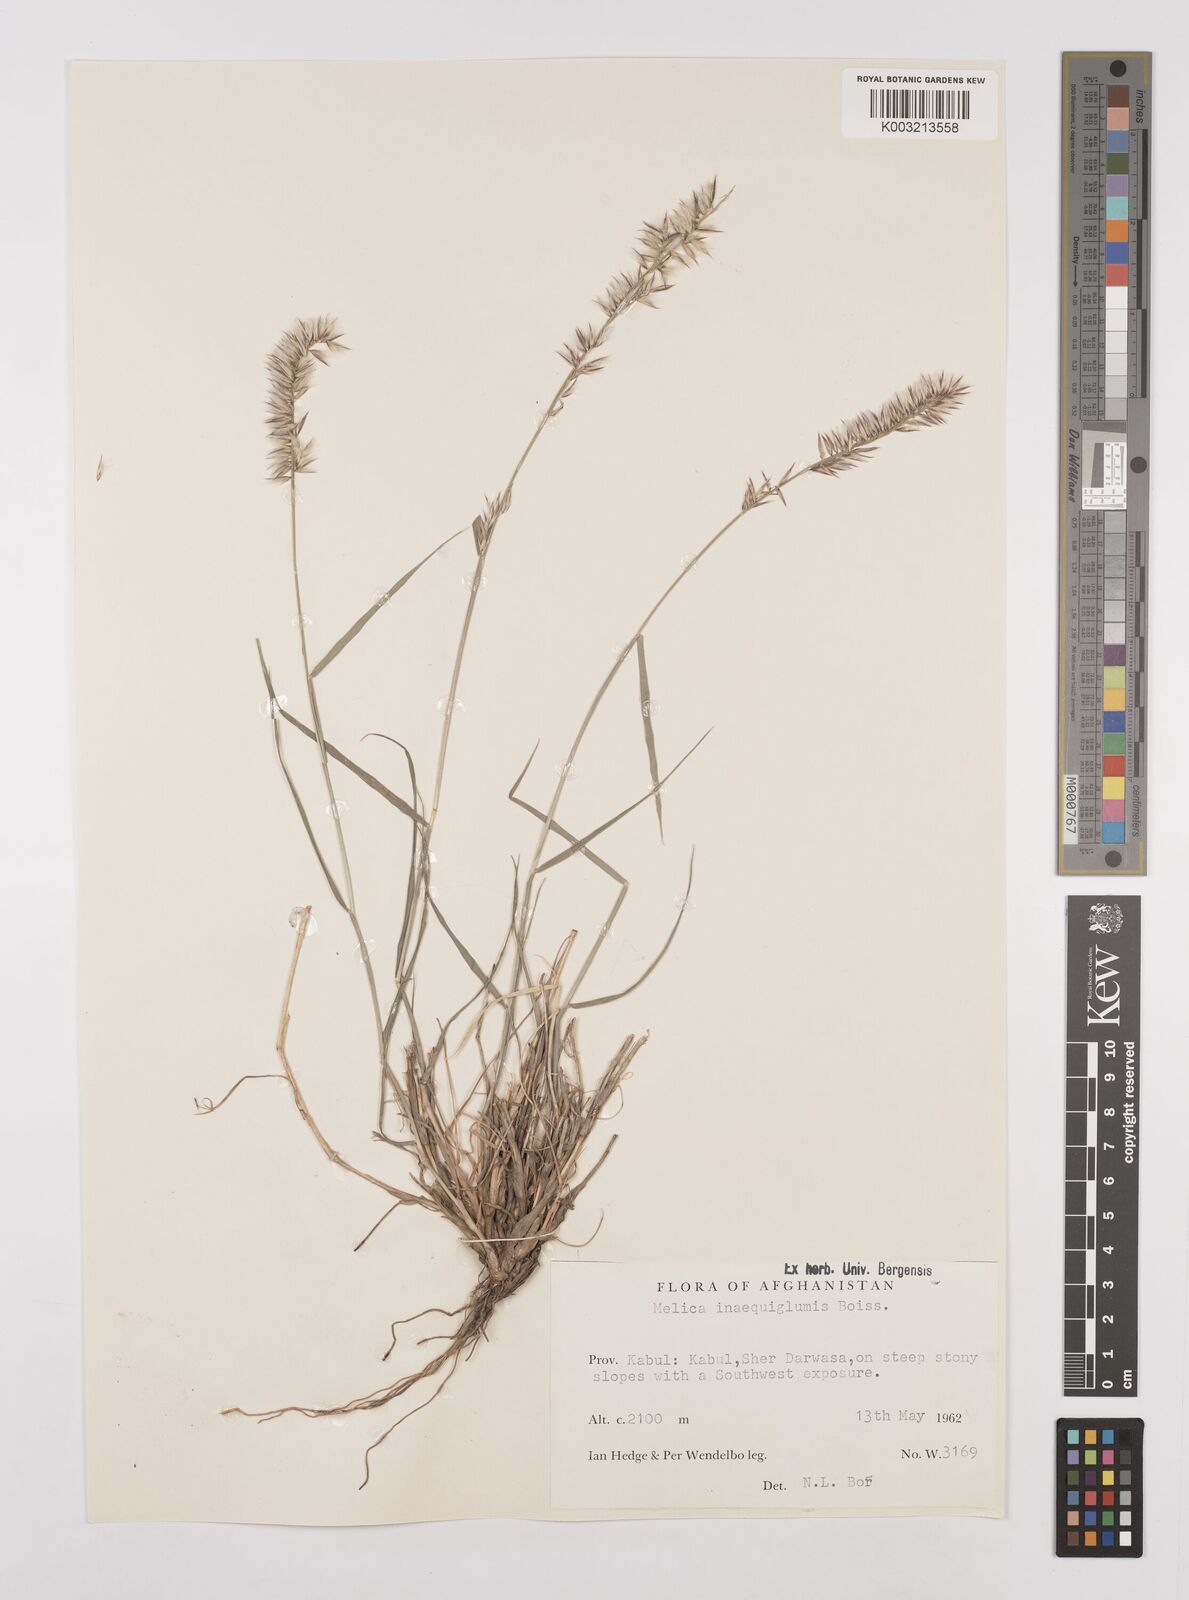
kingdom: Plantae
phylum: Tracheophyta
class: Liliopsida
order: Poales
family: Poaceae
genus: Melica
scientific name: Melica persica
